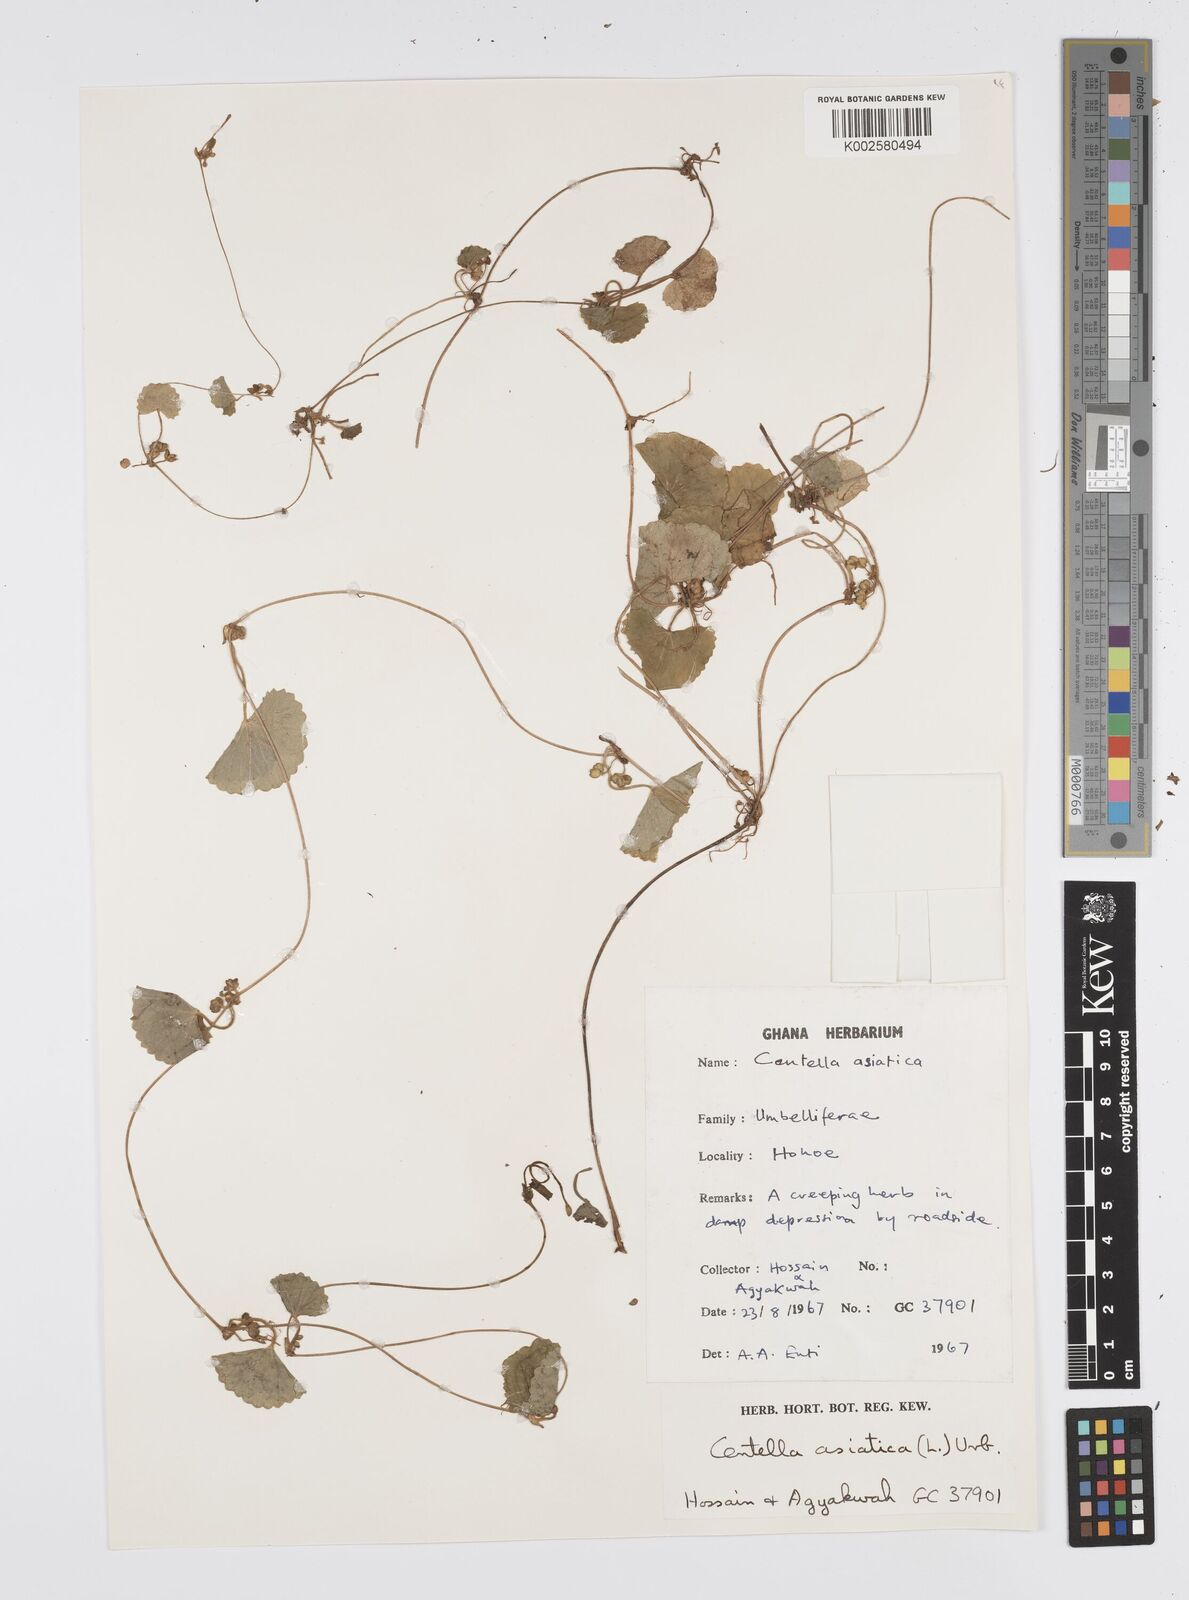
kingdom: Plantae
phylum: Tracheophyta
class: Magnoliopsida
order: Apiales
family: Apiaceae
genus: Centella
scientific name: Centella asiatica
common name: Spadeleaf
